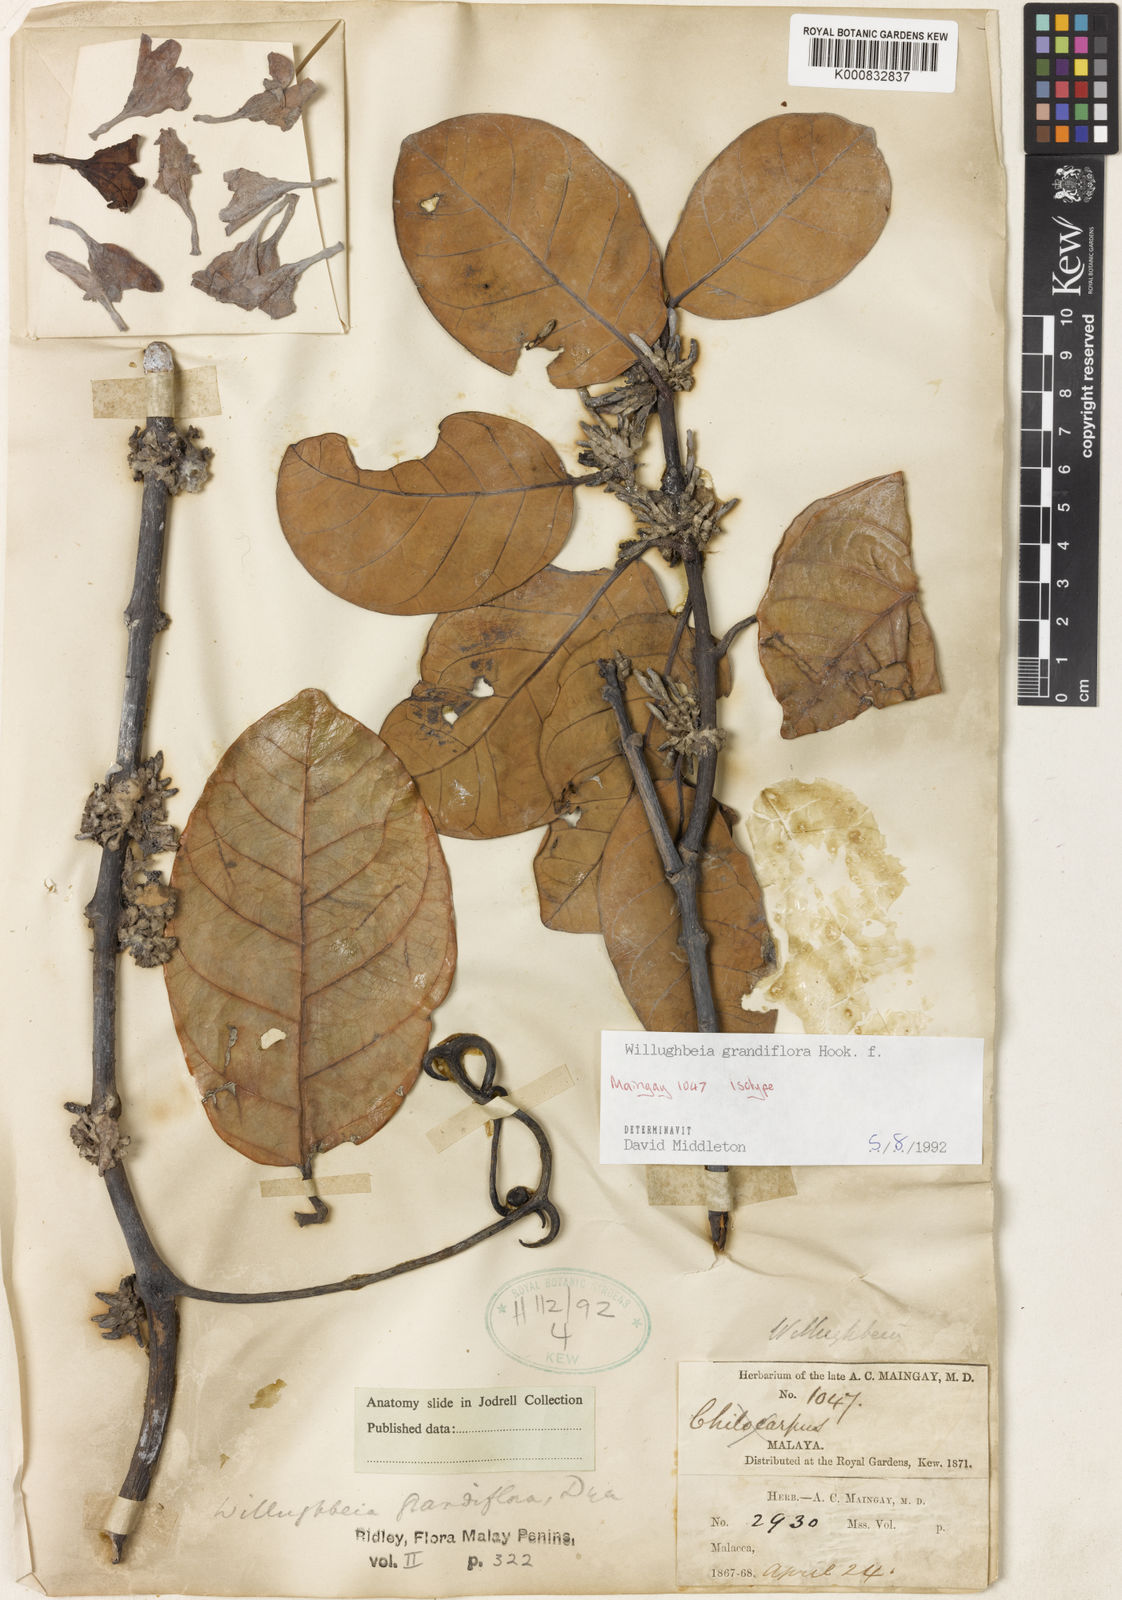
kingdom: Plantae
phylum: Tracheophyta
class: Magnoliopsida
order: Gentianales
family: Apocynaceae
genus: Willughbeia
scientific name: Willughbeia grandiflora
